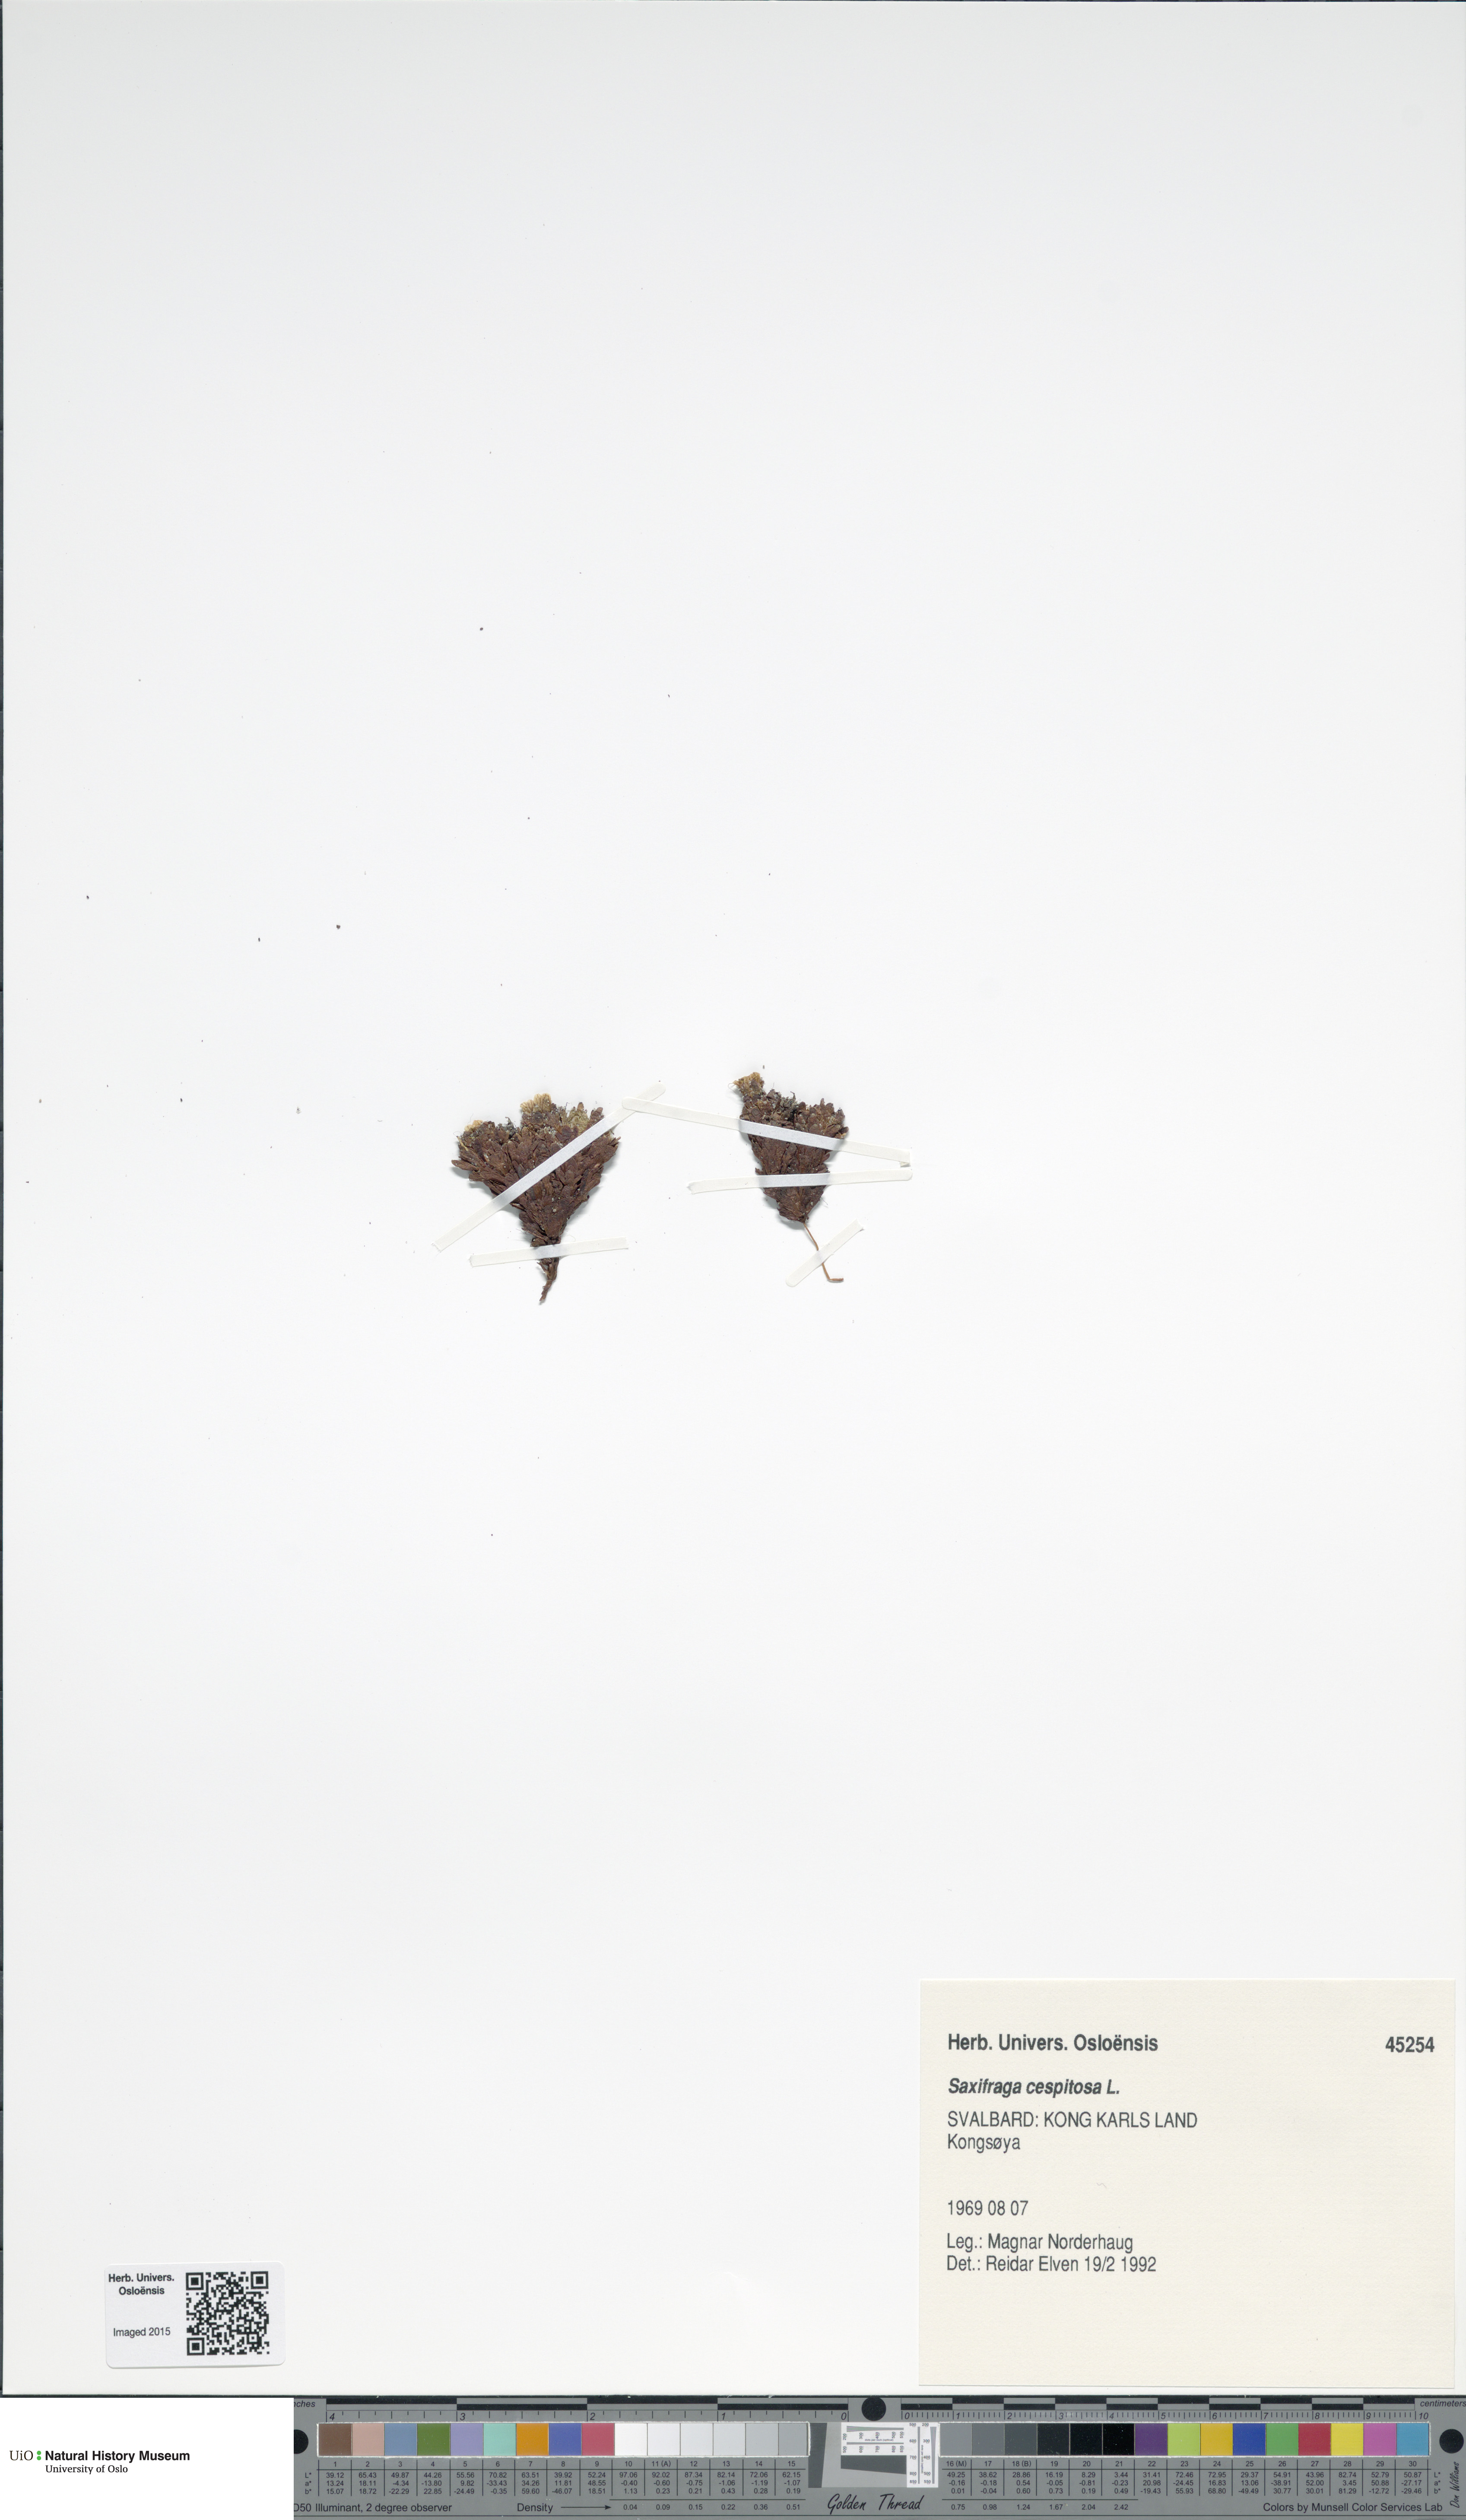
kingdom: Plantae
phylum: Tracheophyta
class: Magnoliopsida
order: Saxifragales
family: Saxifragaceae
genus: Saxifraga
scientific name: Saxifraga cespitosa
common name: Tufted saxifrage
